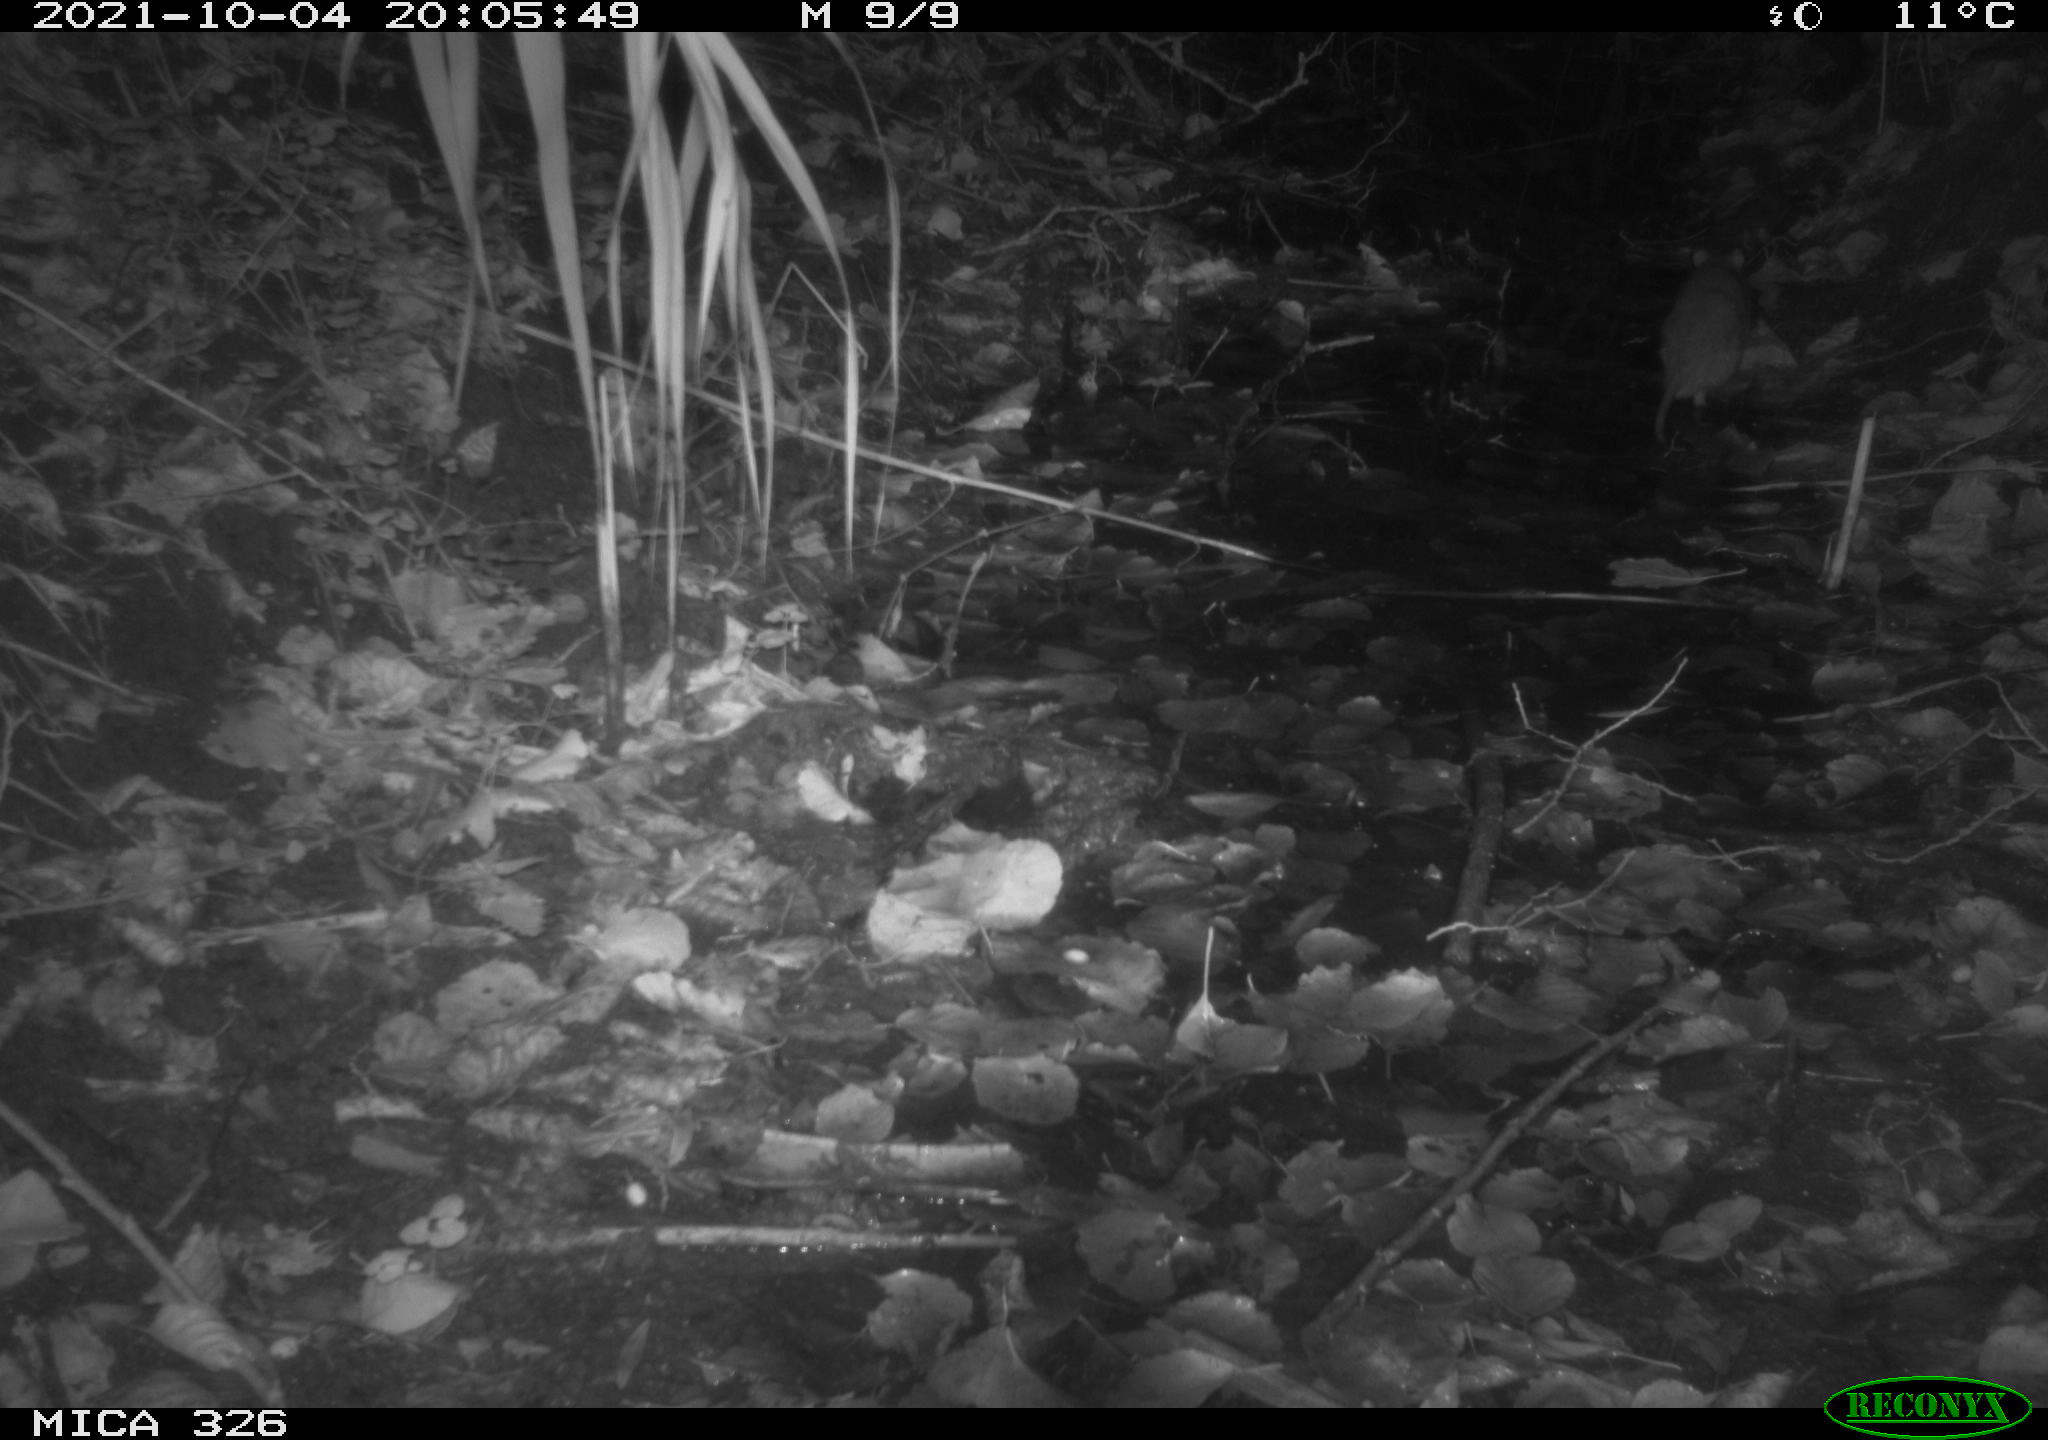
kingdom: Animalia
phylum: Chordata
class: Mammalia
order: Rodentia
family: Muridae
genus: Rattus
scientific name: Rattus norvegicus
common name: Brown rat
